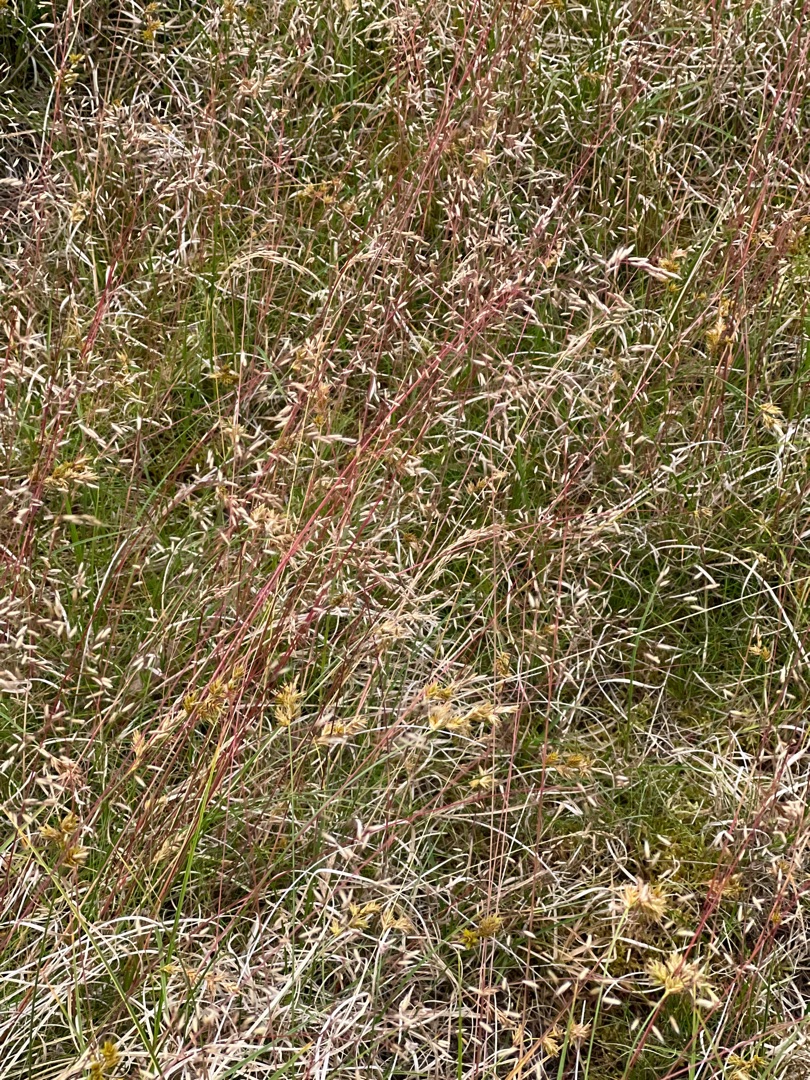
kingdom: Plantae
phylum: Tracheophyta
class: Liliopsida
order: Poales
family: Poaceae
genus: Avenella
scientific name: Avenella flexuosa
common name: Bølget bunke
